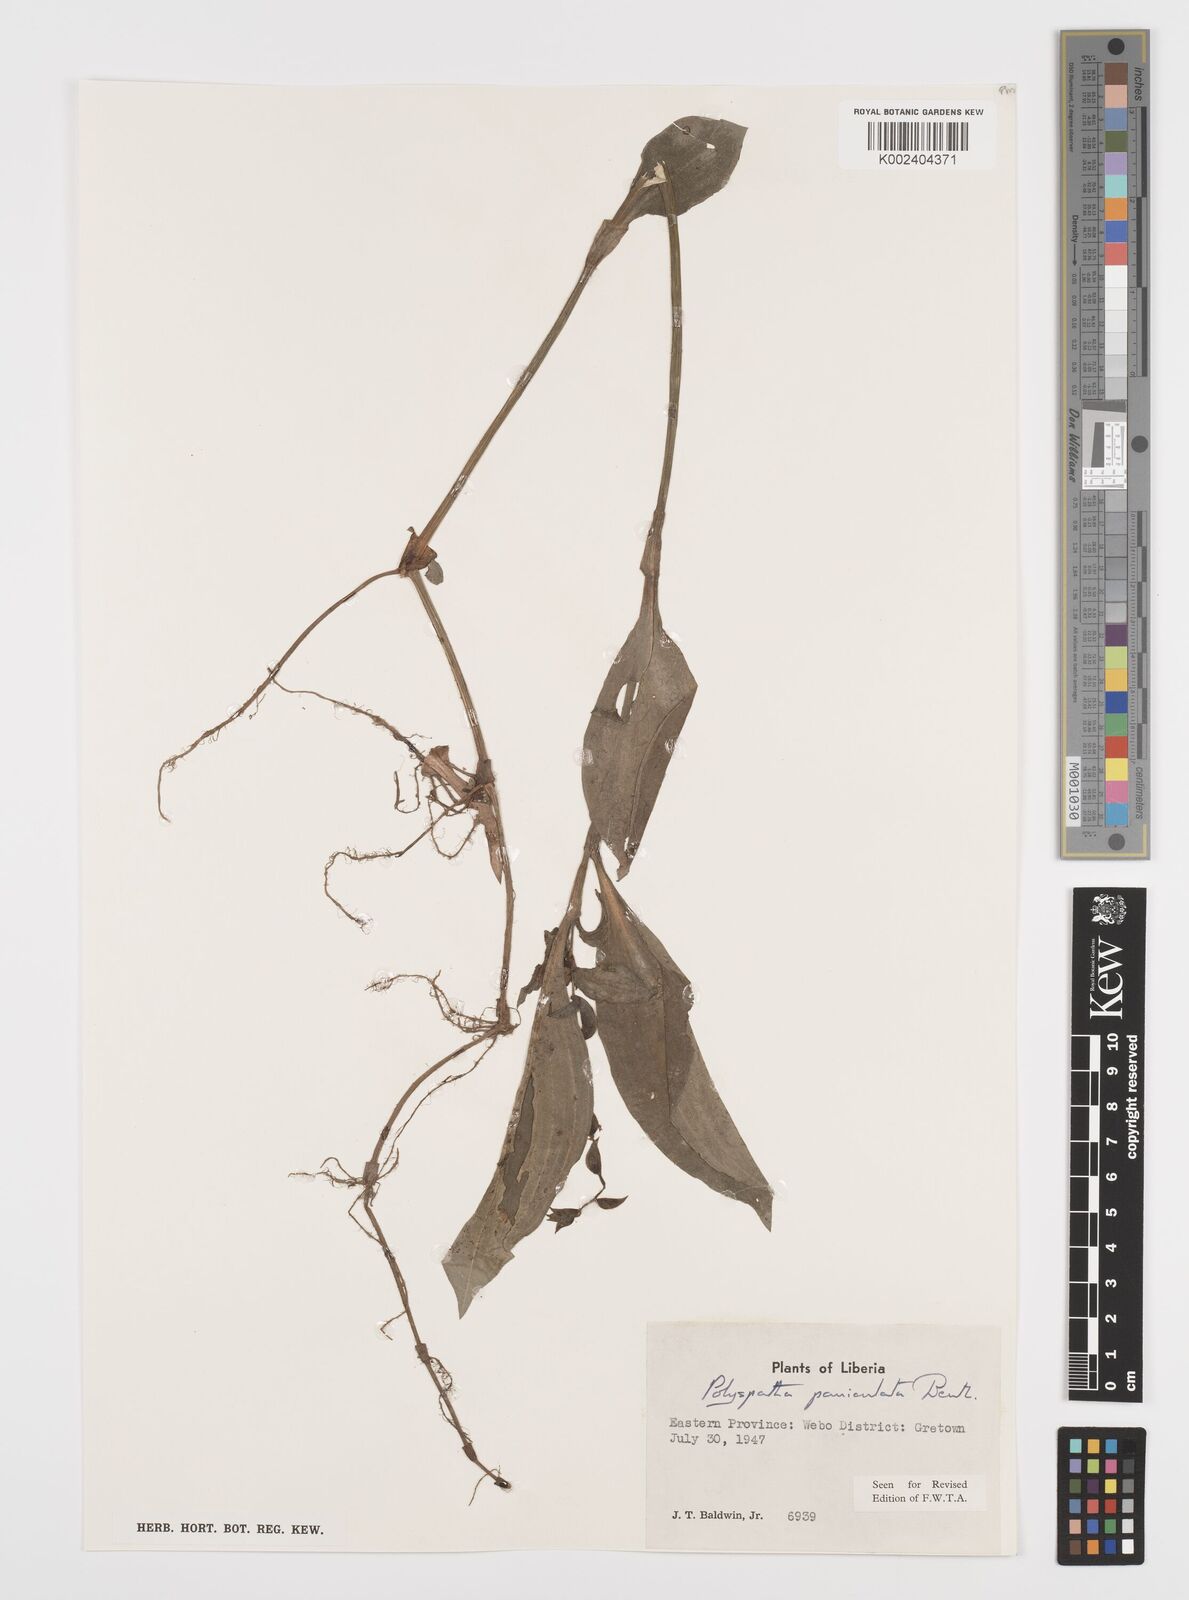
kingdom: Plantae
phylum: Tracheophyta
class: Liliopsida
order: Commelinales
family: Commelinaceae
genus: Polyspatha
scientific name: Polyspatha paniculata
